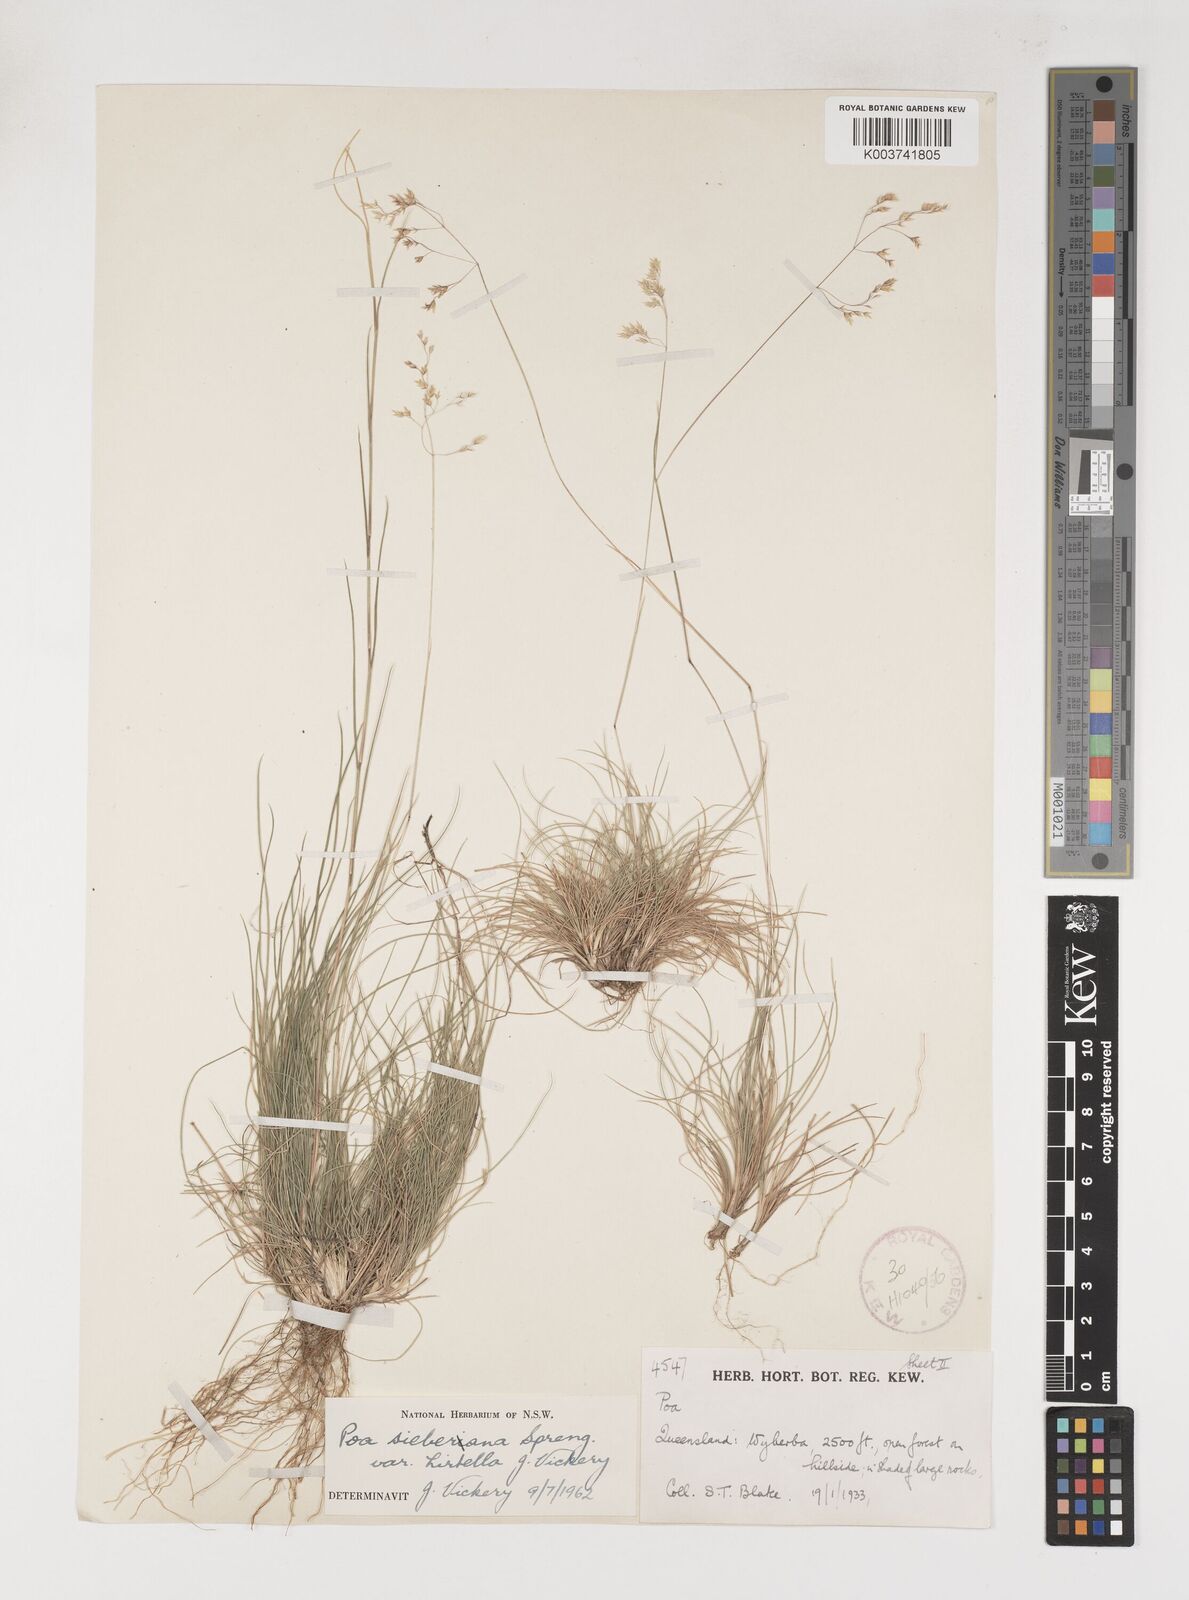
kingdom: Plantae
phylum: Tracheophyta
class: Liliopsida
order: Poales
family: Poaceae
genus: Poa
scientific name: Poa sieberiana
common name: Tussock poa
